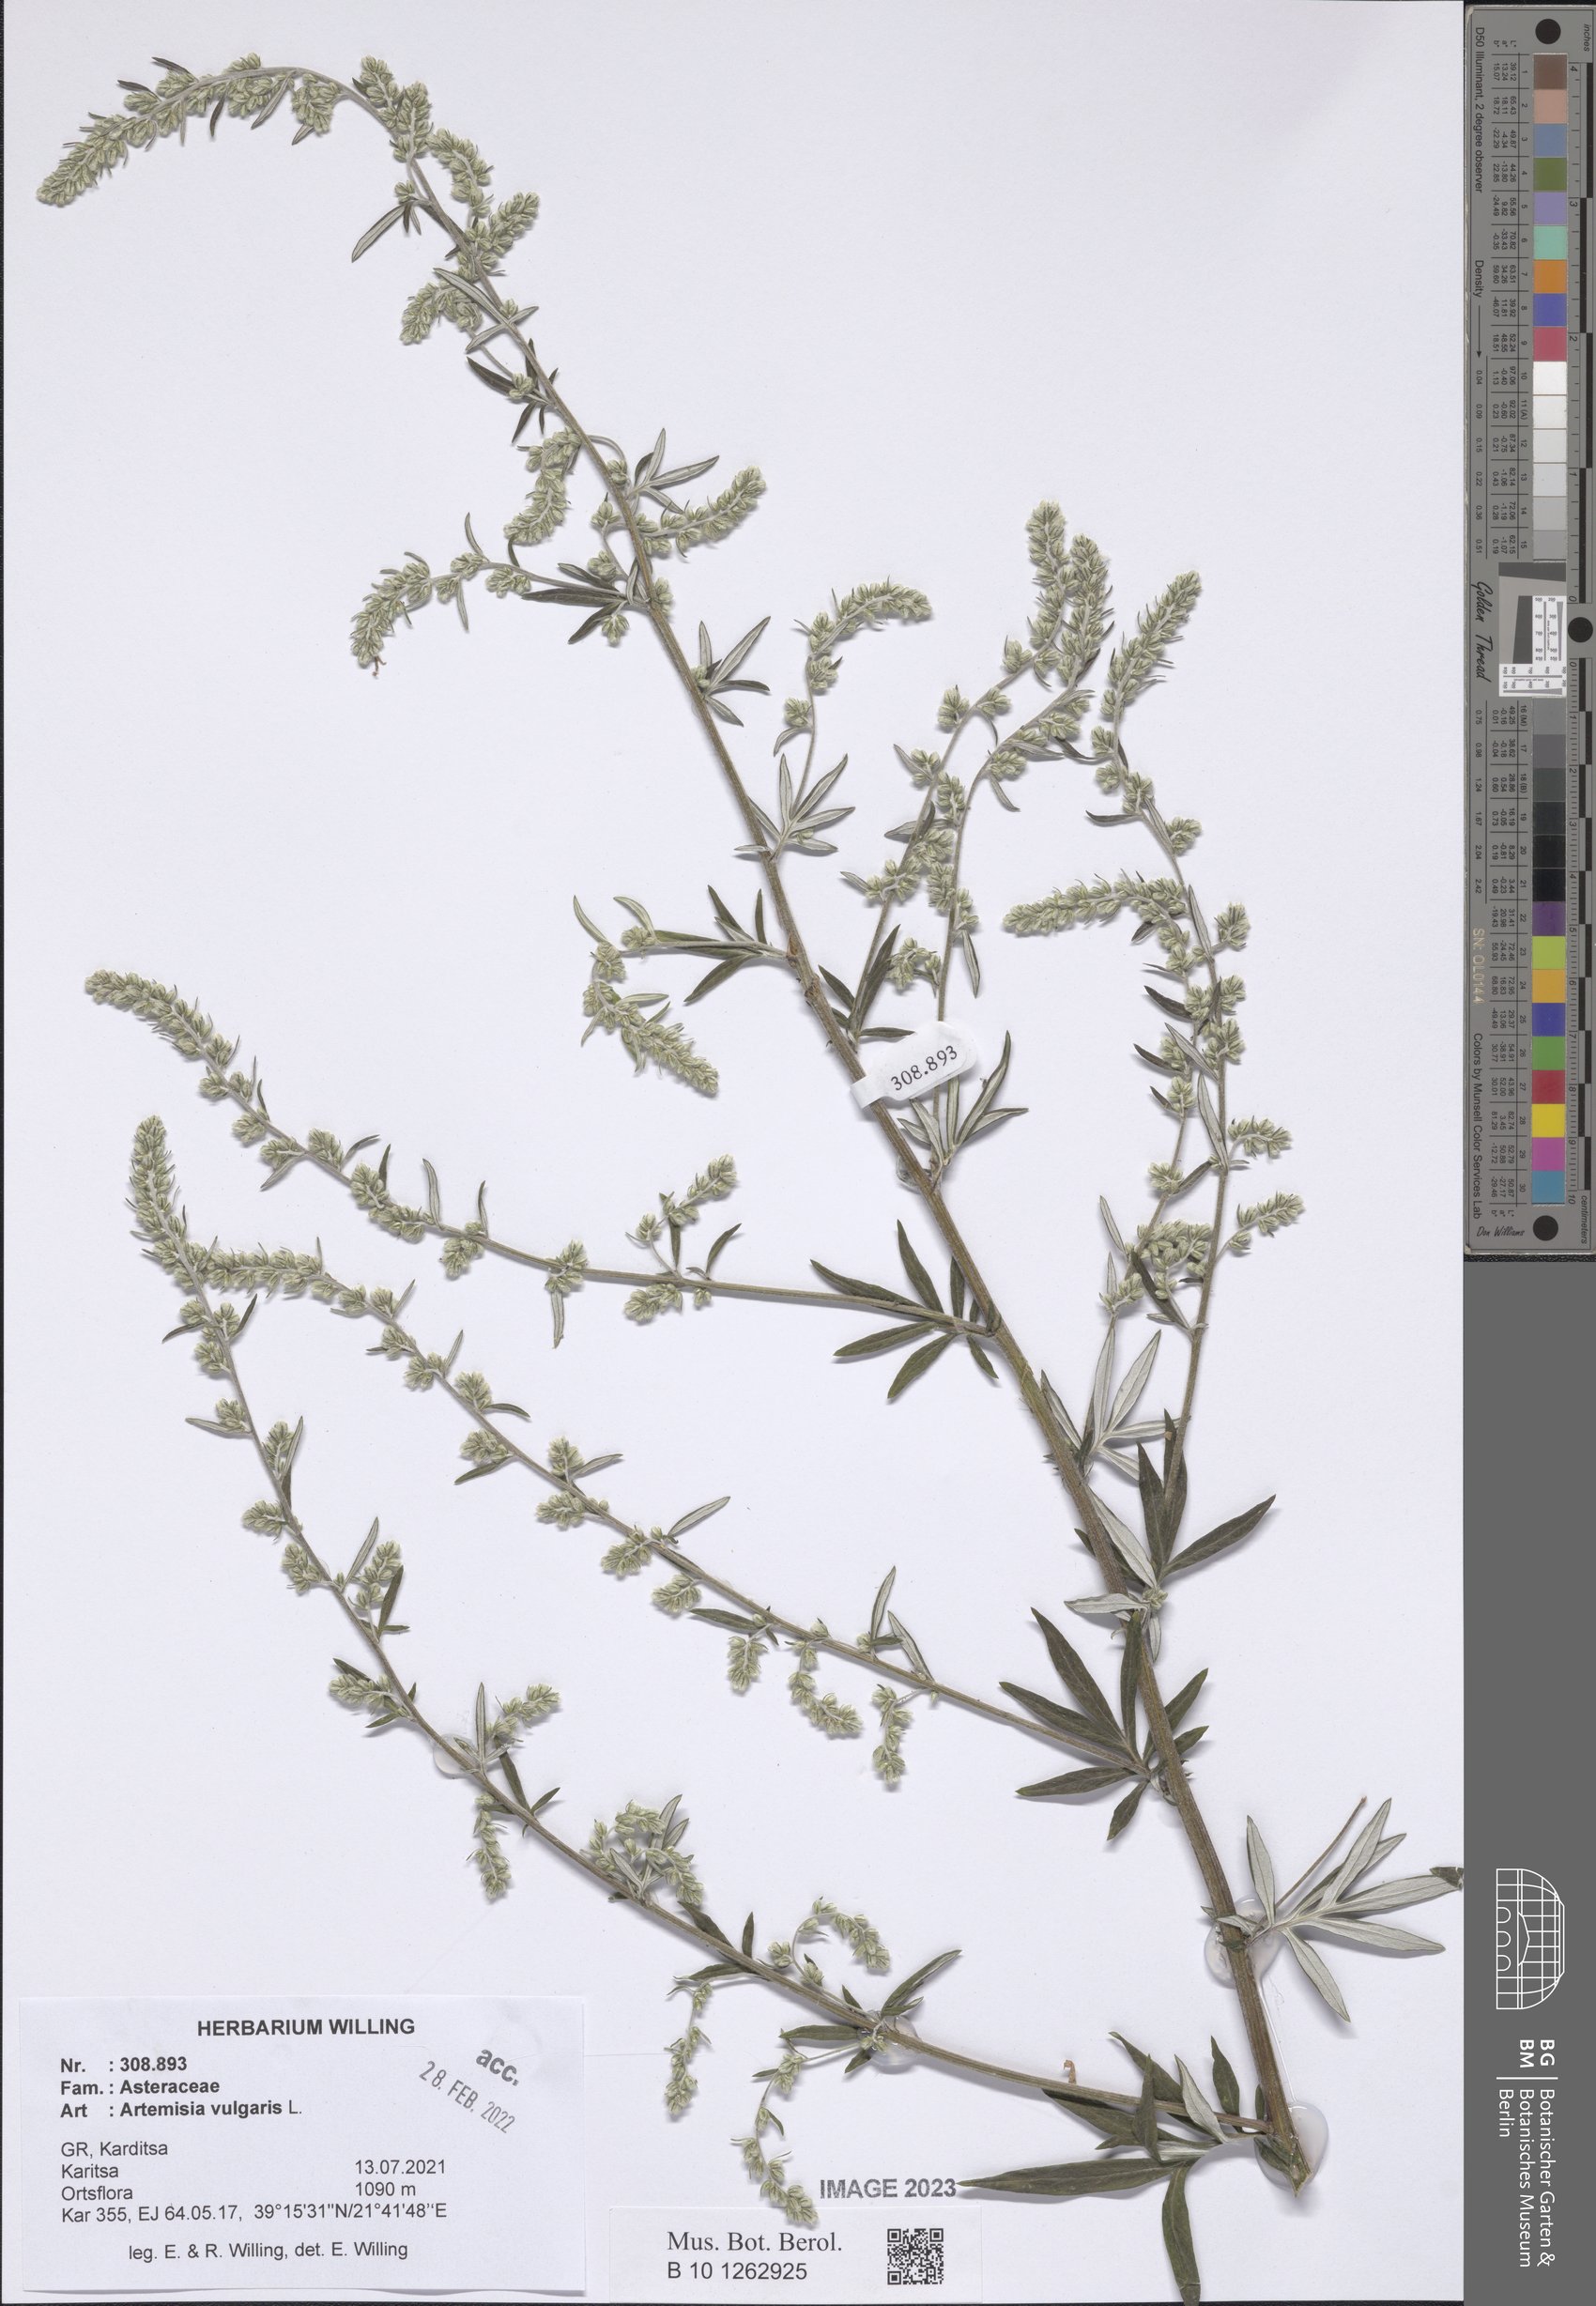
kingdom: Plantae
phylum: Tracheophyta
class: Magnoliopsida
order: Asterales
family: Asteraceae
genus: Artemisia
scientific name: Artemisia vulgaris
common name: Mugwort
